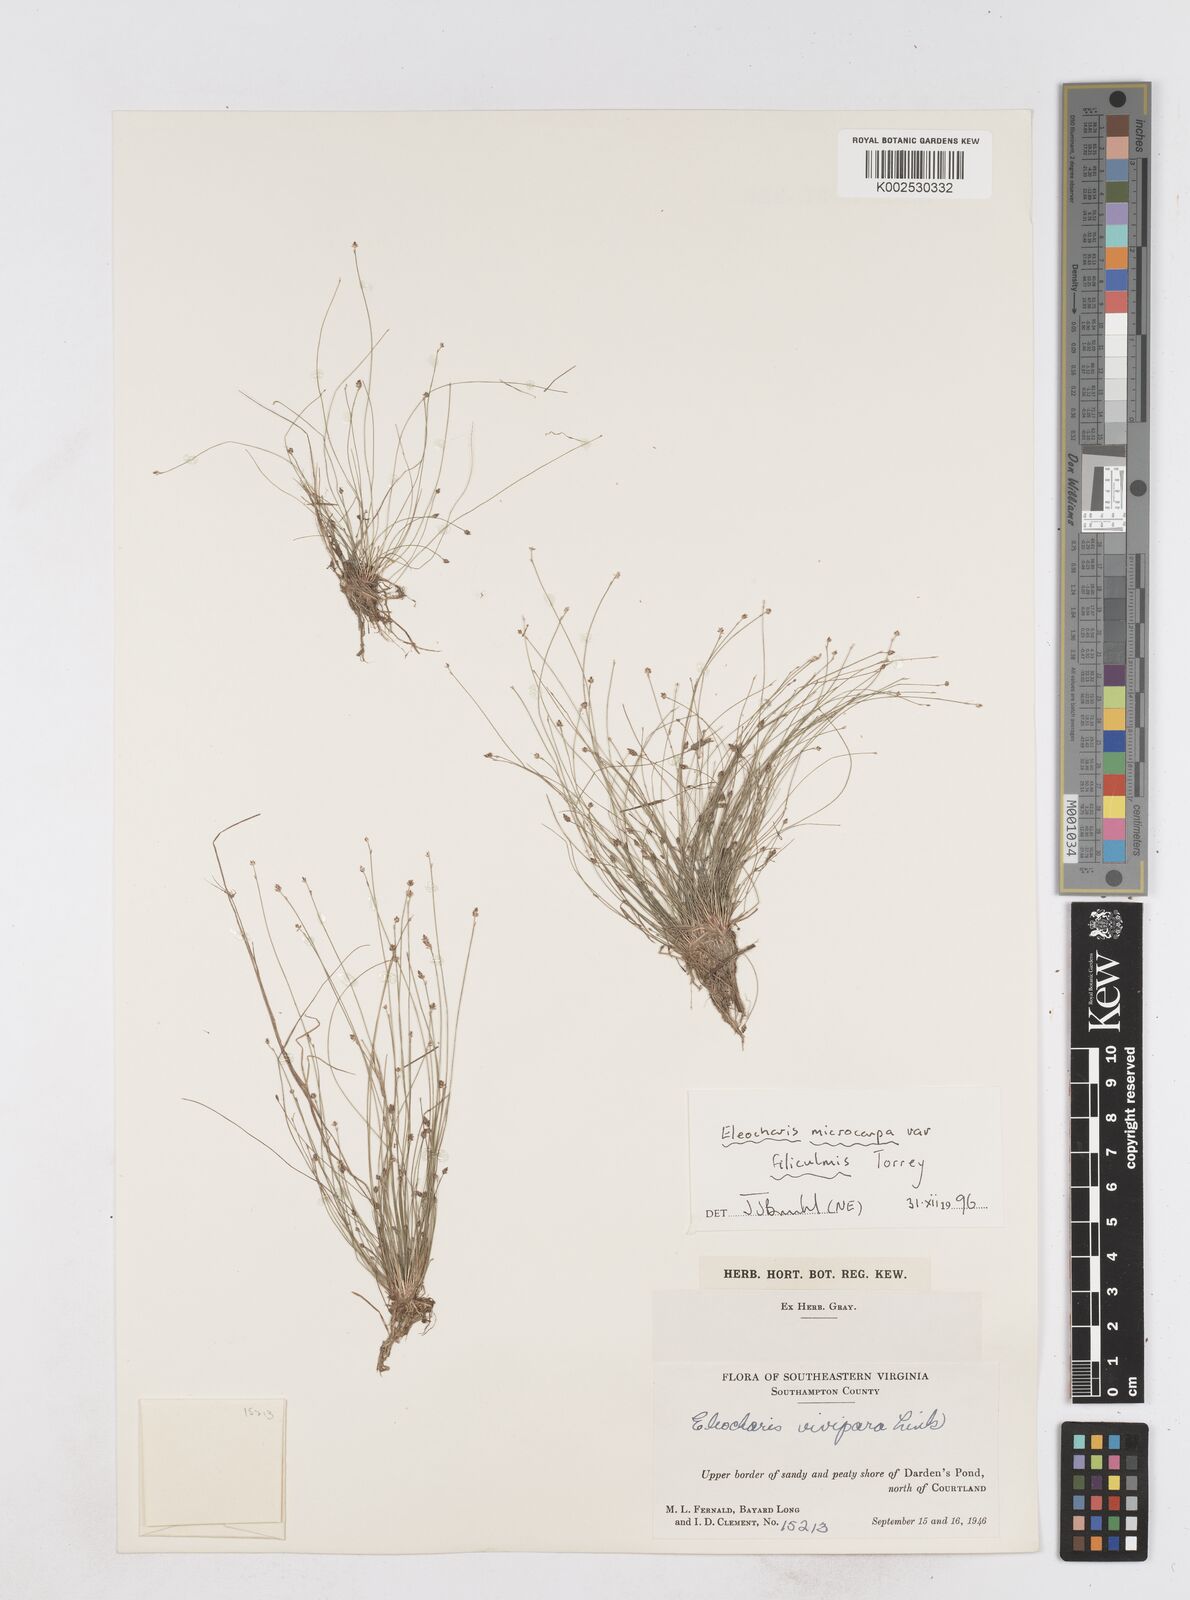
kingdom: Plantae
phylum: Tracheophyta
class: Liliopsida
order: Poales
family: Cyperaceae
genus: Eleocharis
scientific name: Eleocharis microcarpa
